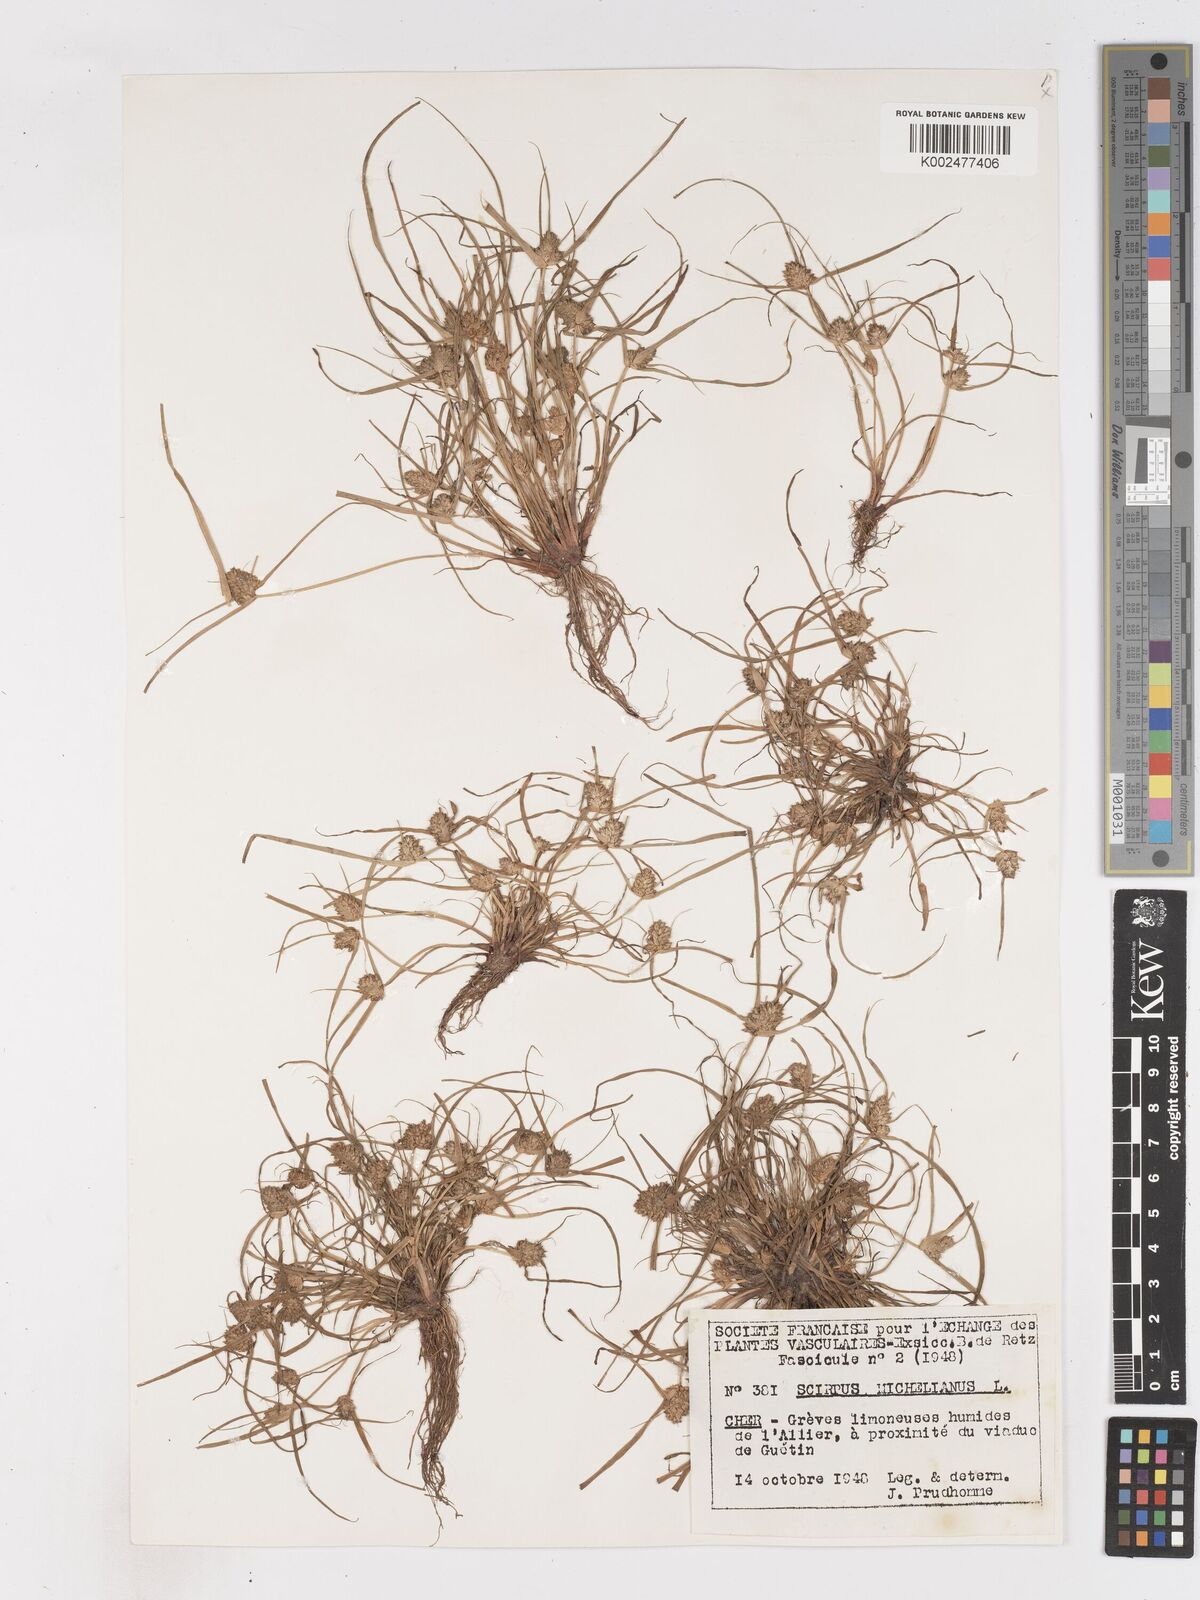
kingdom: Plantae
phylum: Tracheophyta
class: Liliopsida
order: Poales
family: Cyperaceae
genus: Cyperus
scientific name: Cyperus michelianus
